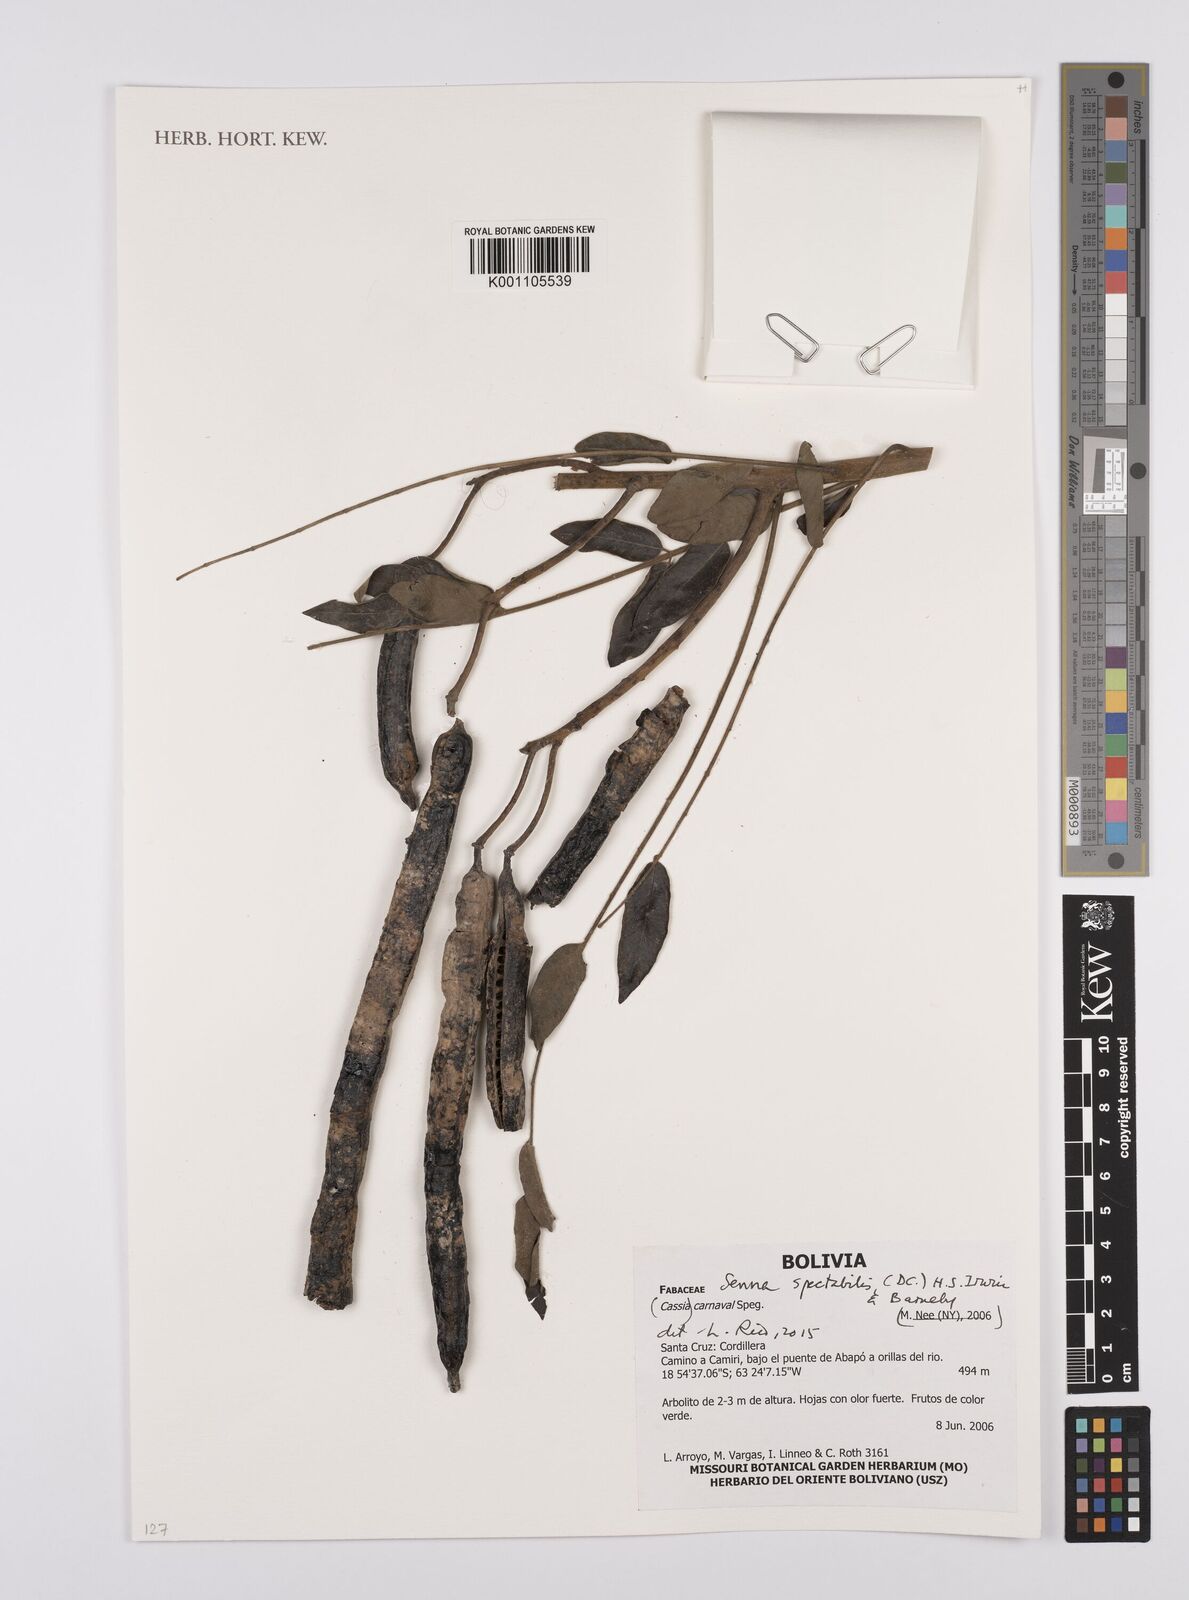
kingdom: Plantae
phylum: Tracheophyta
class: Magnoliopsida
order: Fabales
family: Fabaceae
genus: Senna
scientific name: Senna spectabilis
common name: Casia amarilla
